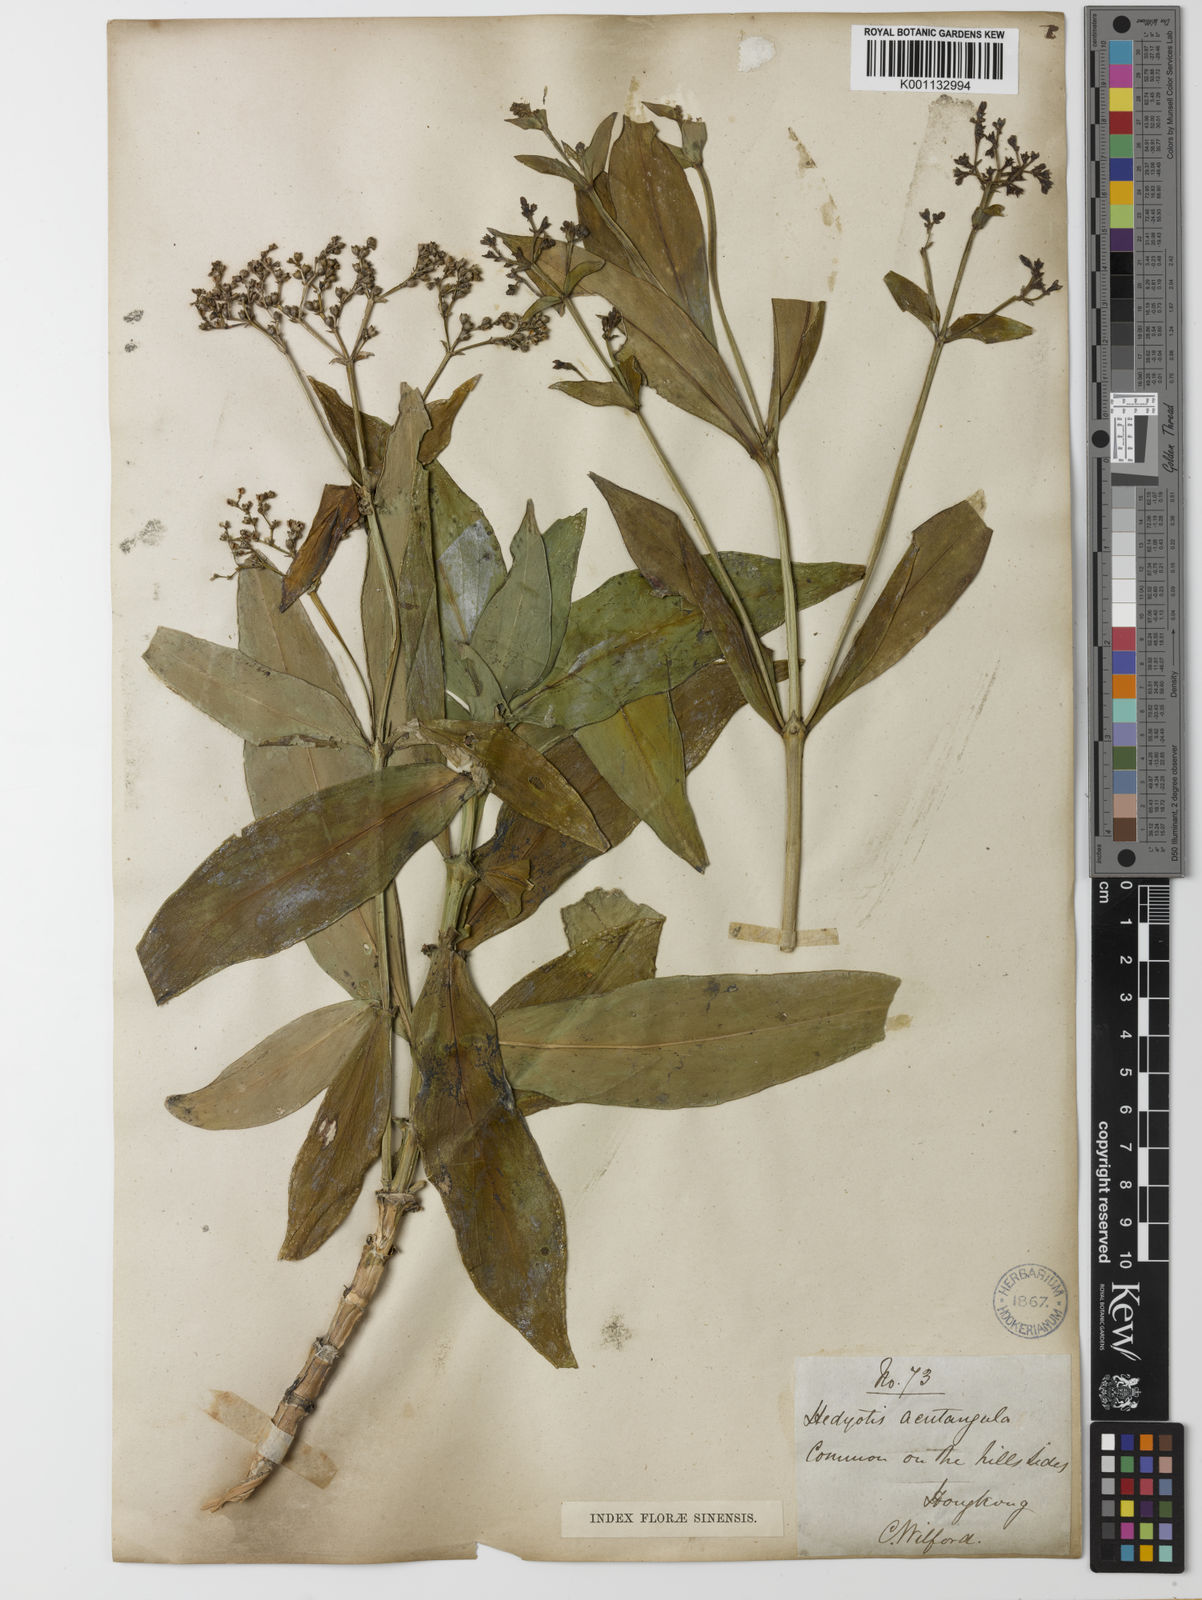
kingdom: Plantae
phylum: Tracheophyta
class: Magnoliopsida
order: Gentianales
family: Rubiaceae
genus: Hedyotis
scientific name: Hedyotis acutangula
